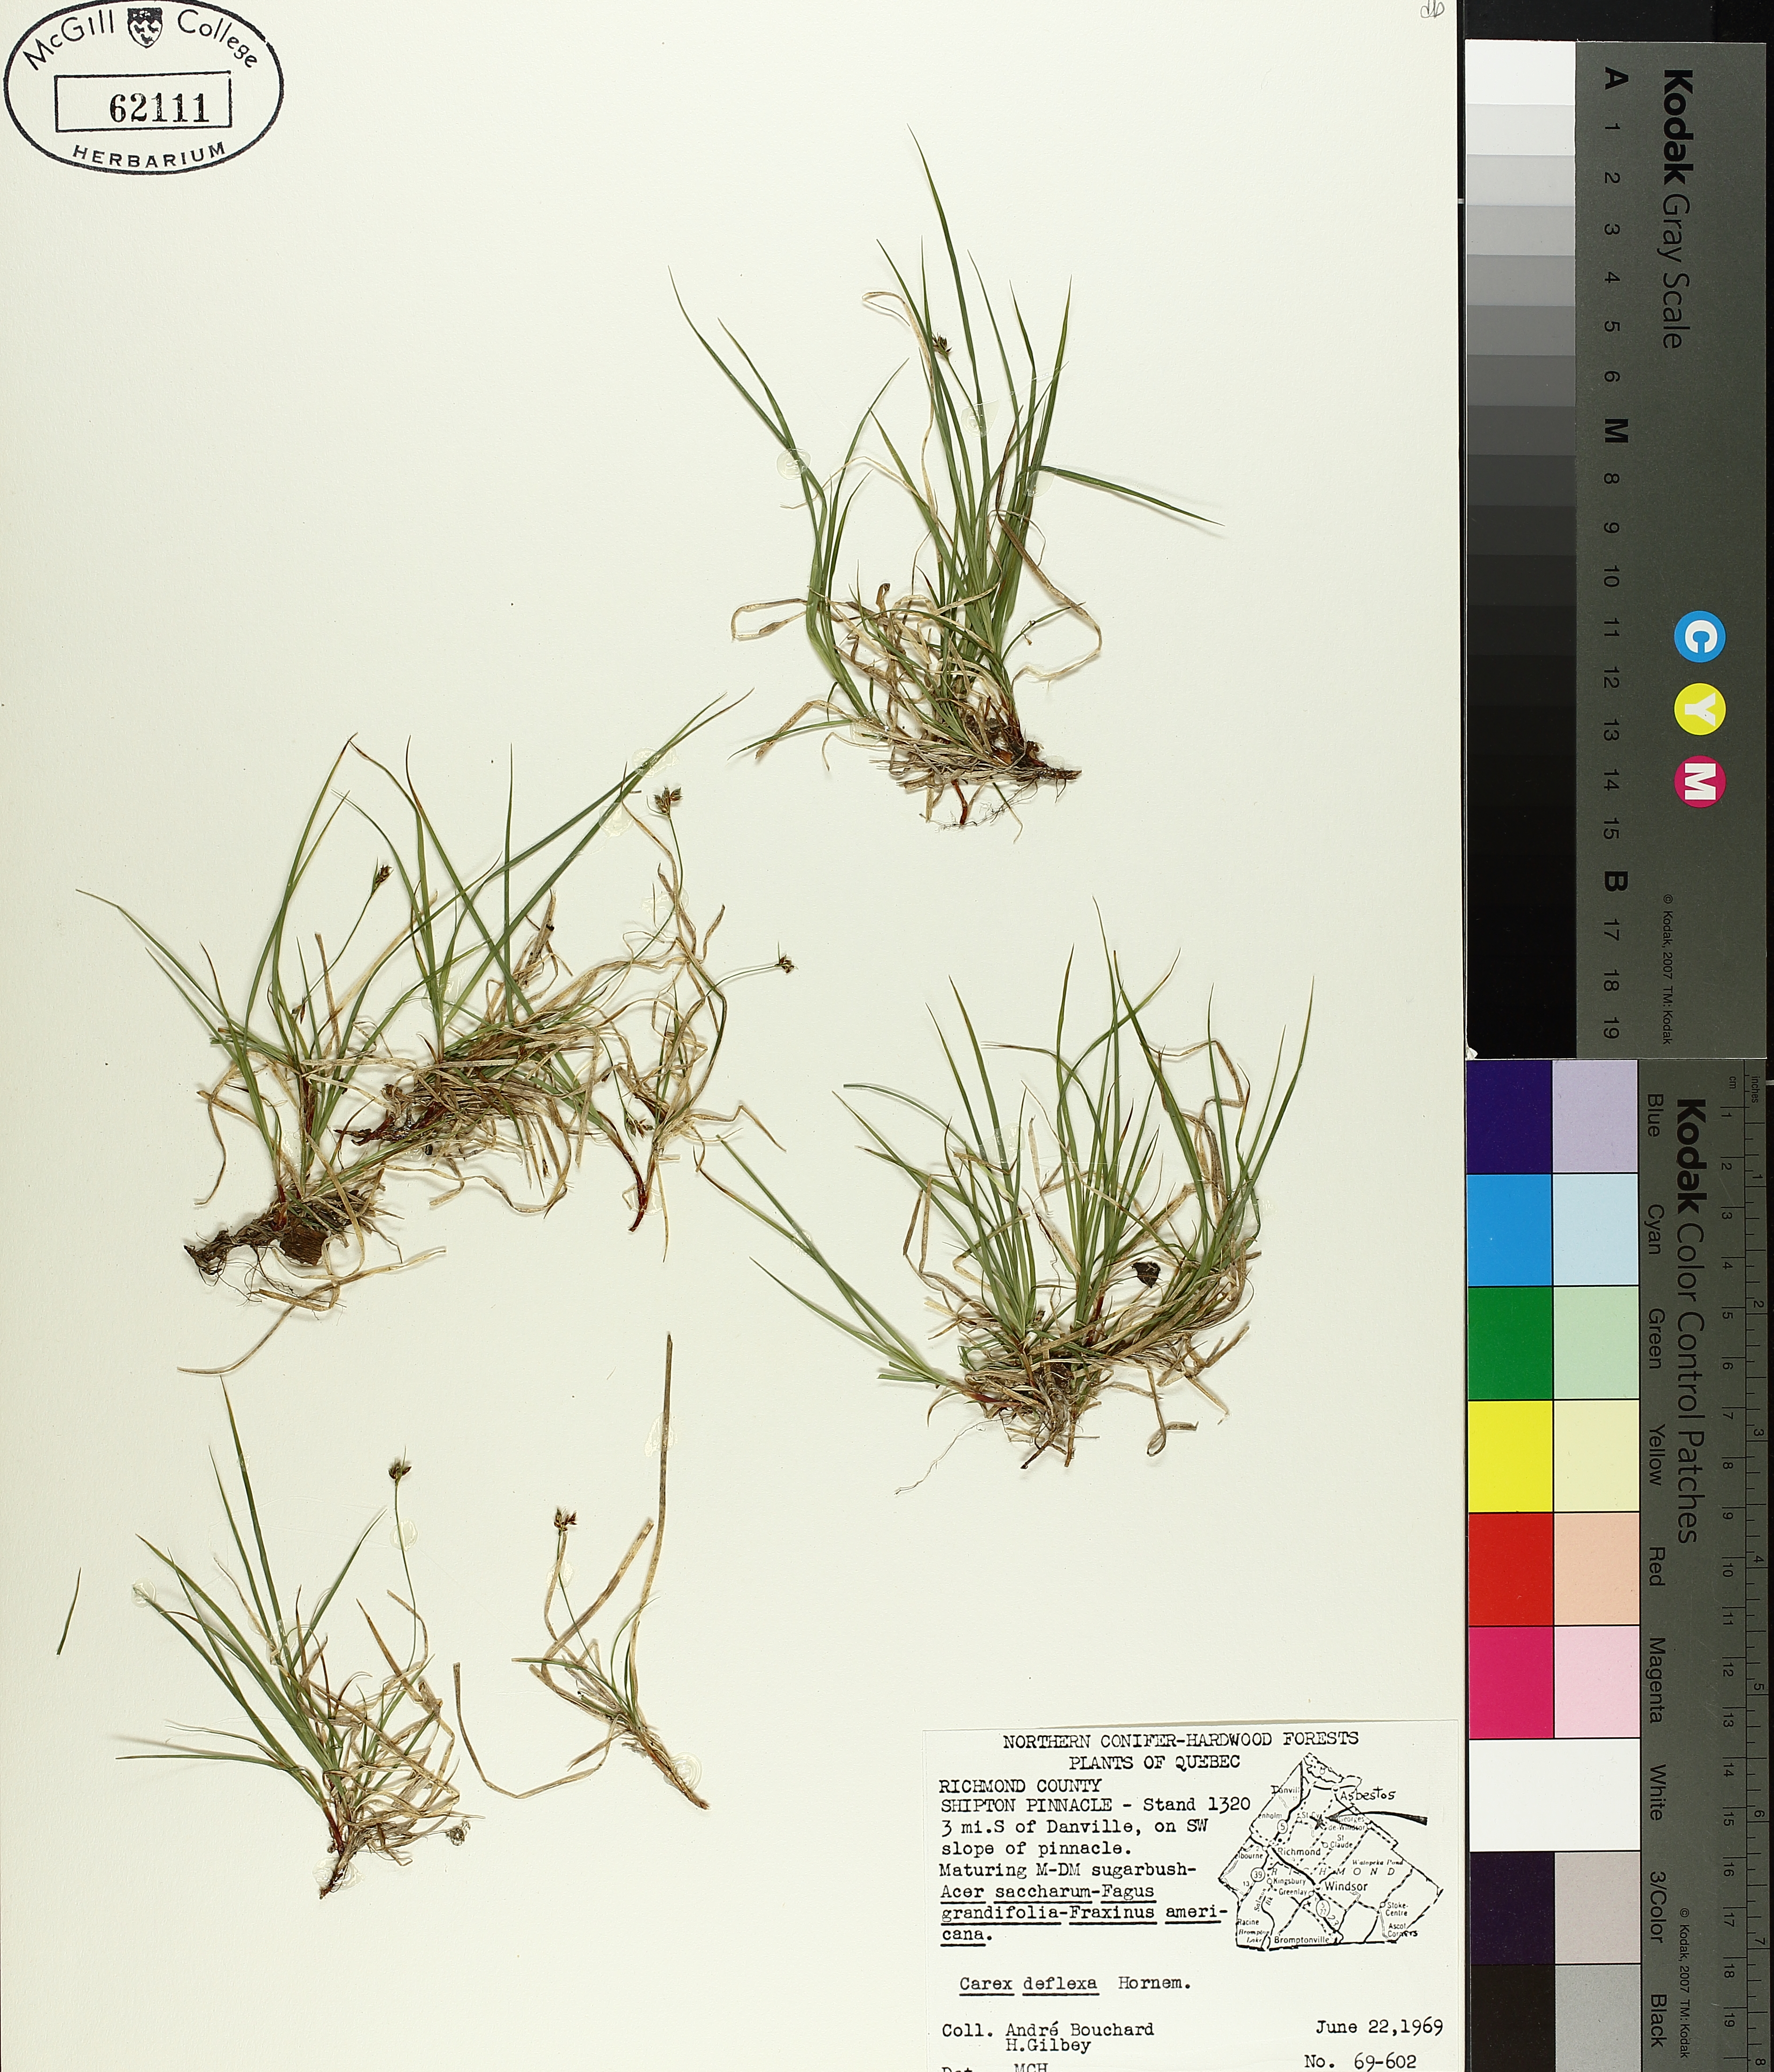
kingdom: Plantae
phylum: Tracheophyta
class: Liliopsida
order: Poales
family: Cyperaceae
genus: Carex
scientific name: Carex deflexa
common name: Bent northern sedge
